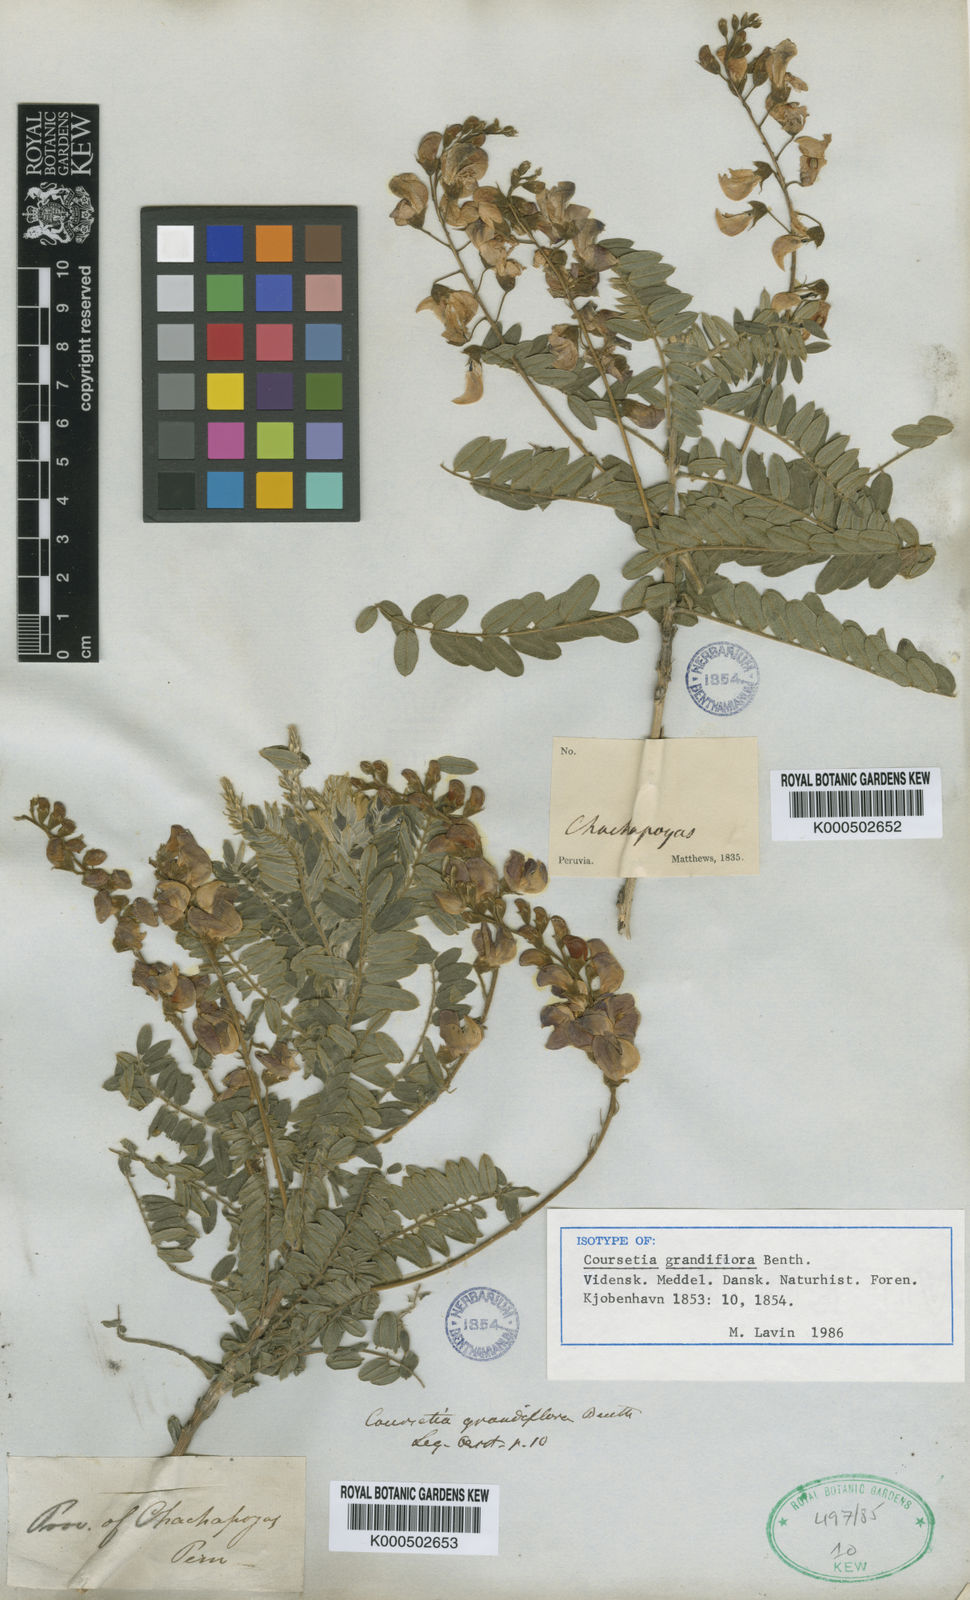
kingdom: Plantae
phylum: Tracheophyta
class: Magnoliopsida
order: Fabales
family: Fabaceae
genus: Coursetia
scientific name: Coursetia
